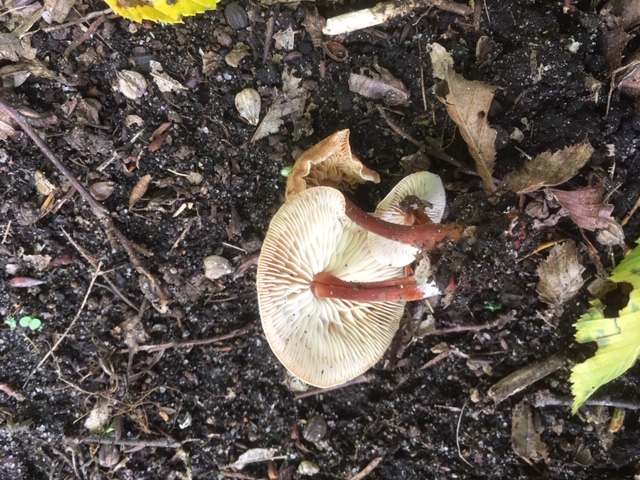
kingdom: Fungi
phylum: Basidiomycota
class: Agaricomycetes
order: Agaricales
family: Omphalotaceae
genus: Gymnopus
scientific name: Gymnopus erythropus
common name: rødstokket fladhat
